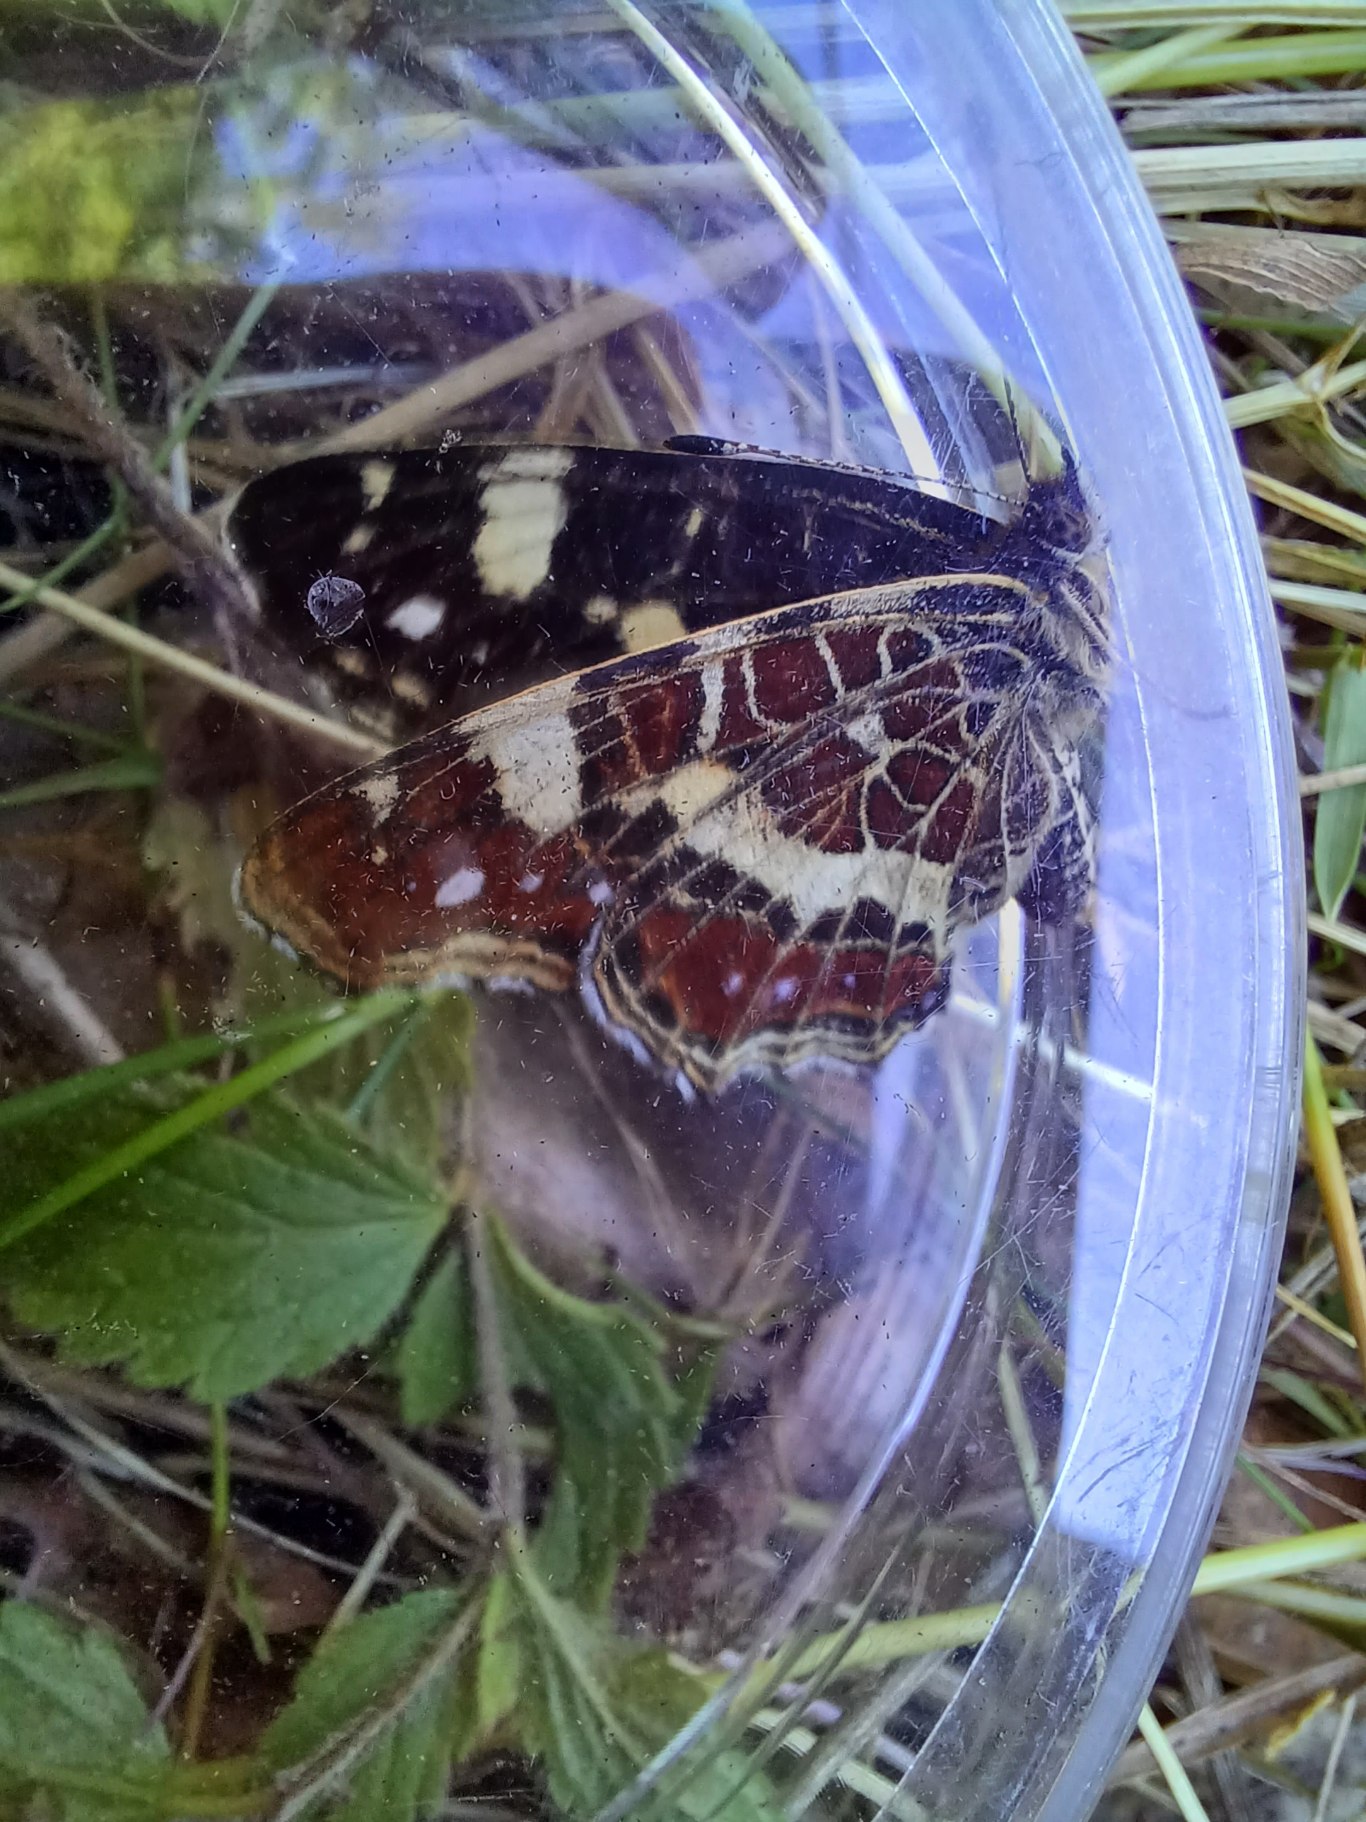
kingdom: Animalia
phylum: Arthropoda
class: Insecta
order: Lepidoptera
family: Nymphalidae
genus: Araschnia
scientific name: Araschnia levana
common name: Nældesommerfugl
